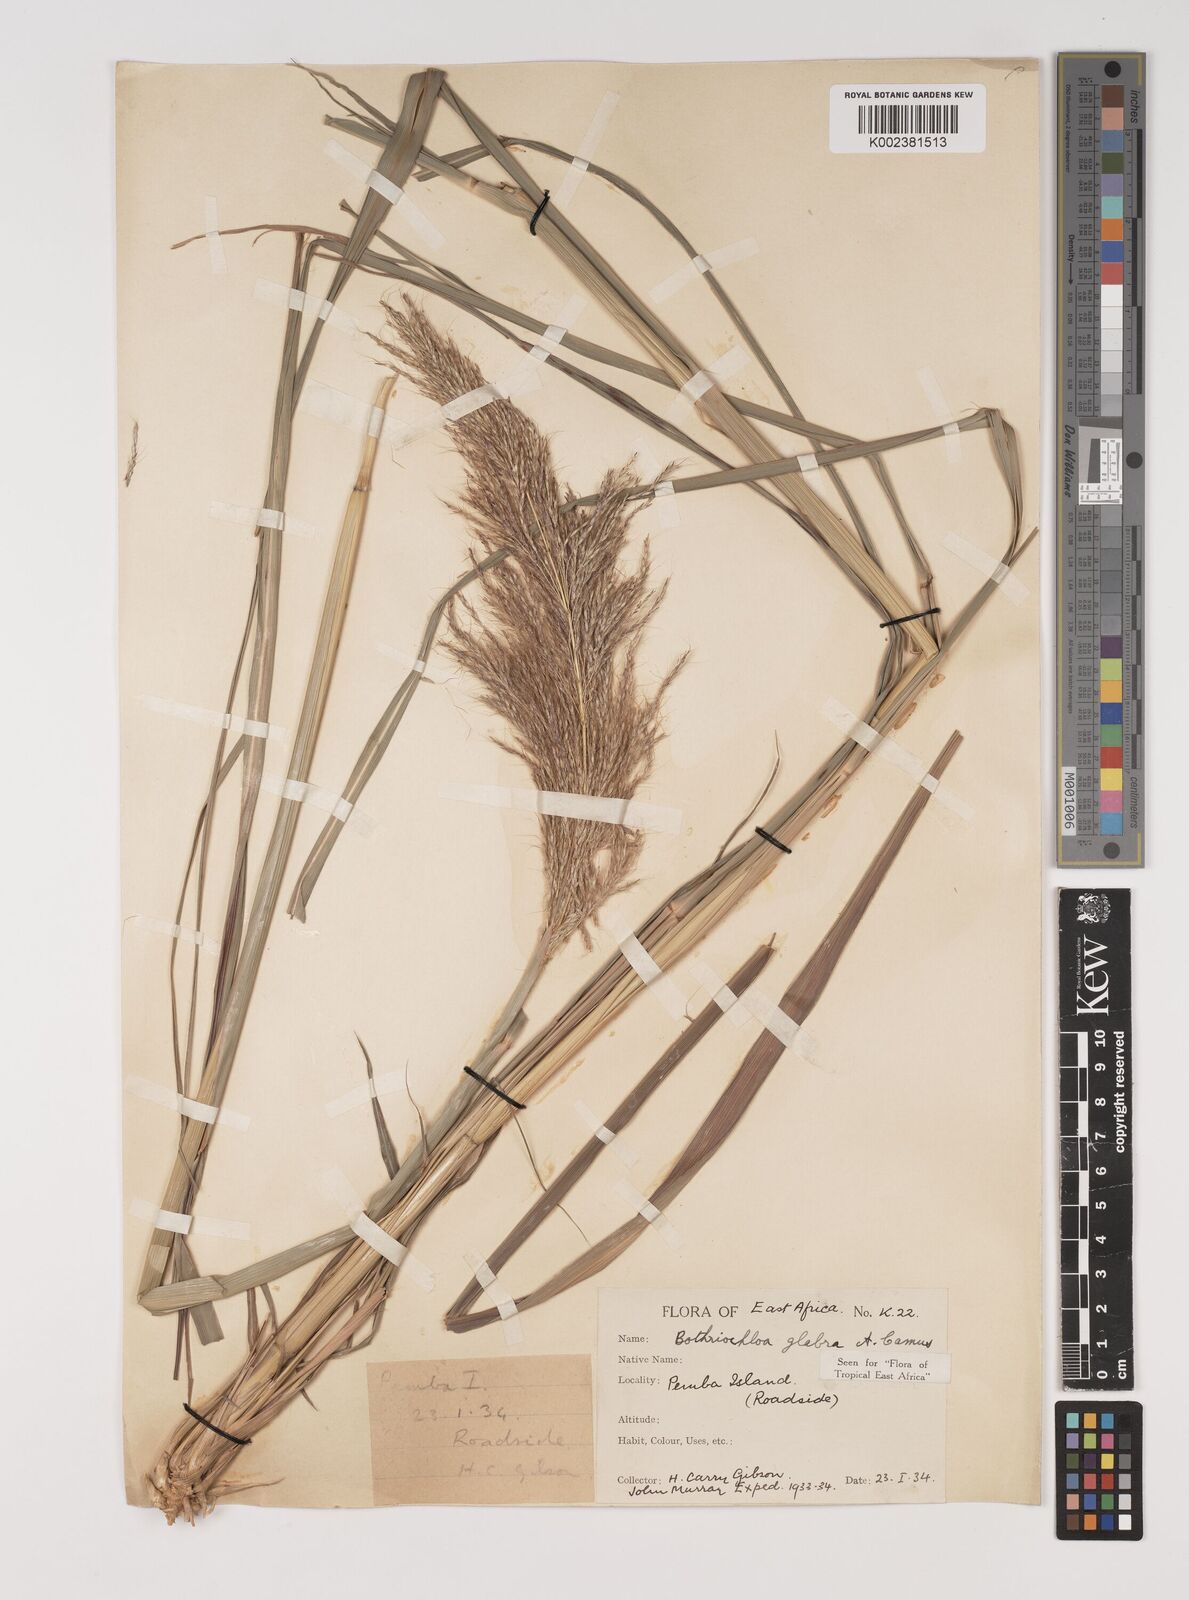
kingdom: Plantae
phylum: Tracheophyta
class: Liliopsida
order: Poales
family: Poaceae
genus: Bothriochloa
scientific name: Bothriochloa
